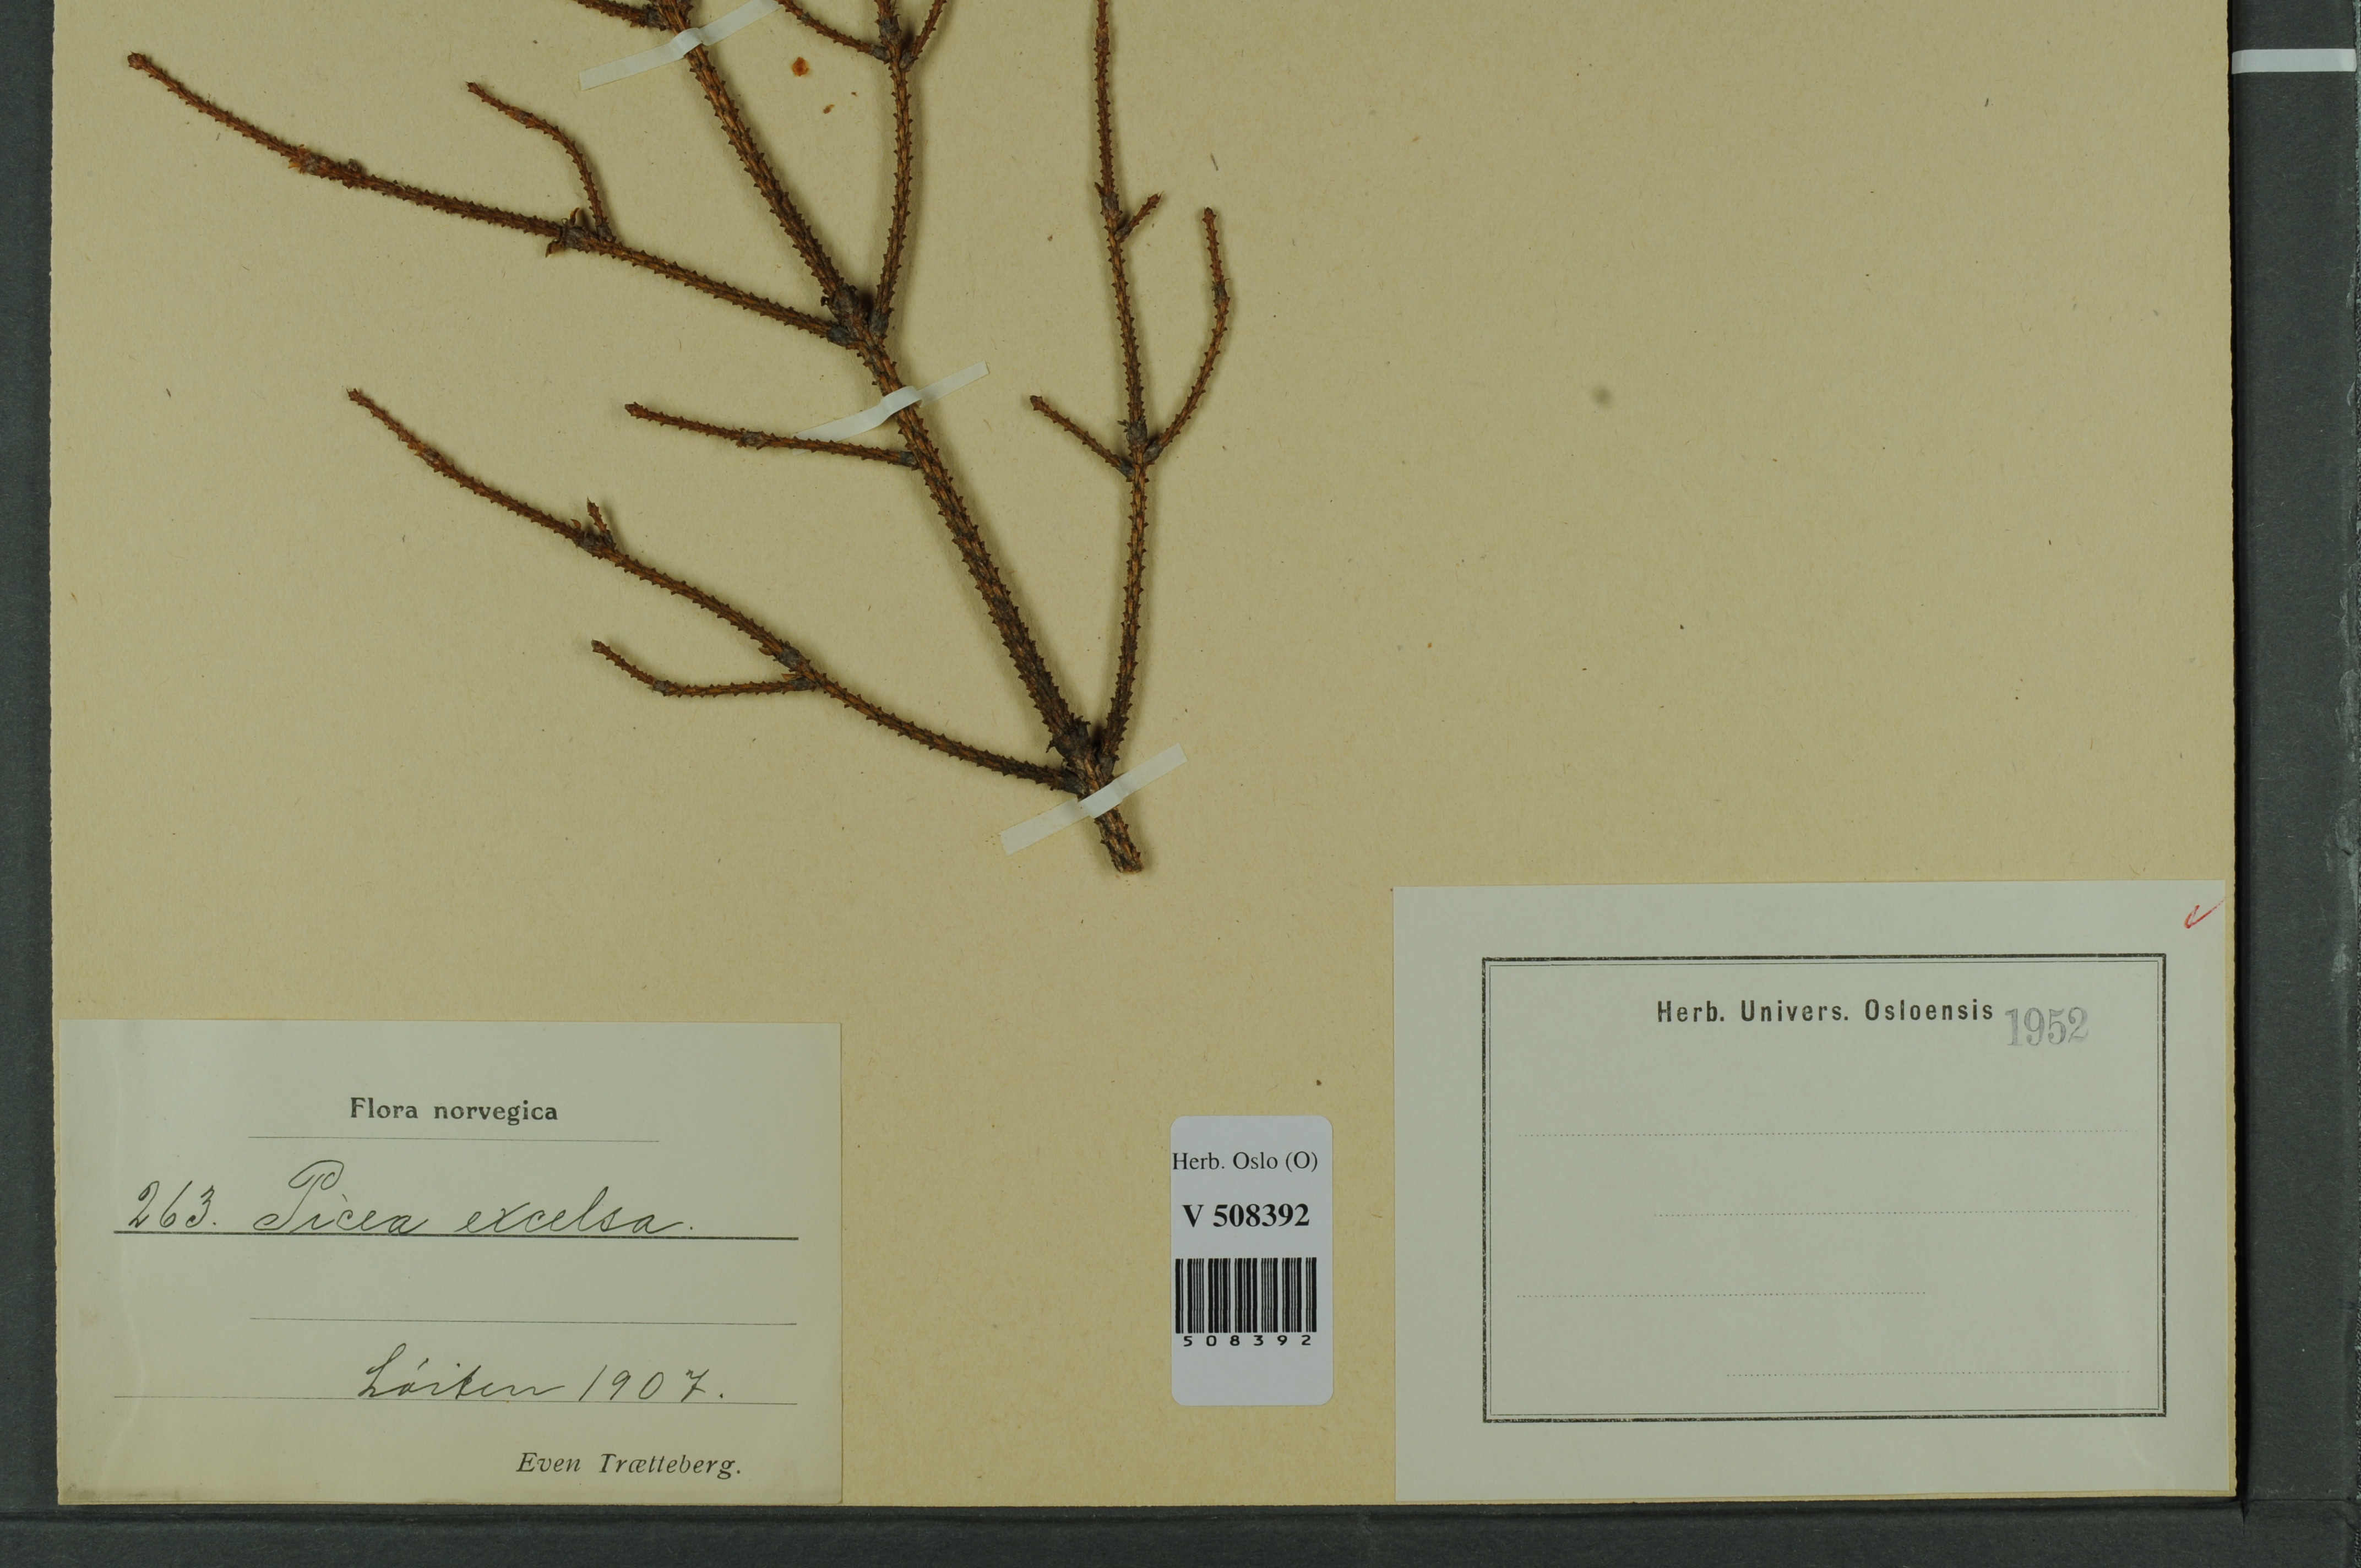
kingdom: Plantae
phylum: Tracheophyta
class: Pinopsida
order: Pinales
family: Pinaceae
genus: Picea
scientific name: Picea abies
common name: Norway spruce
